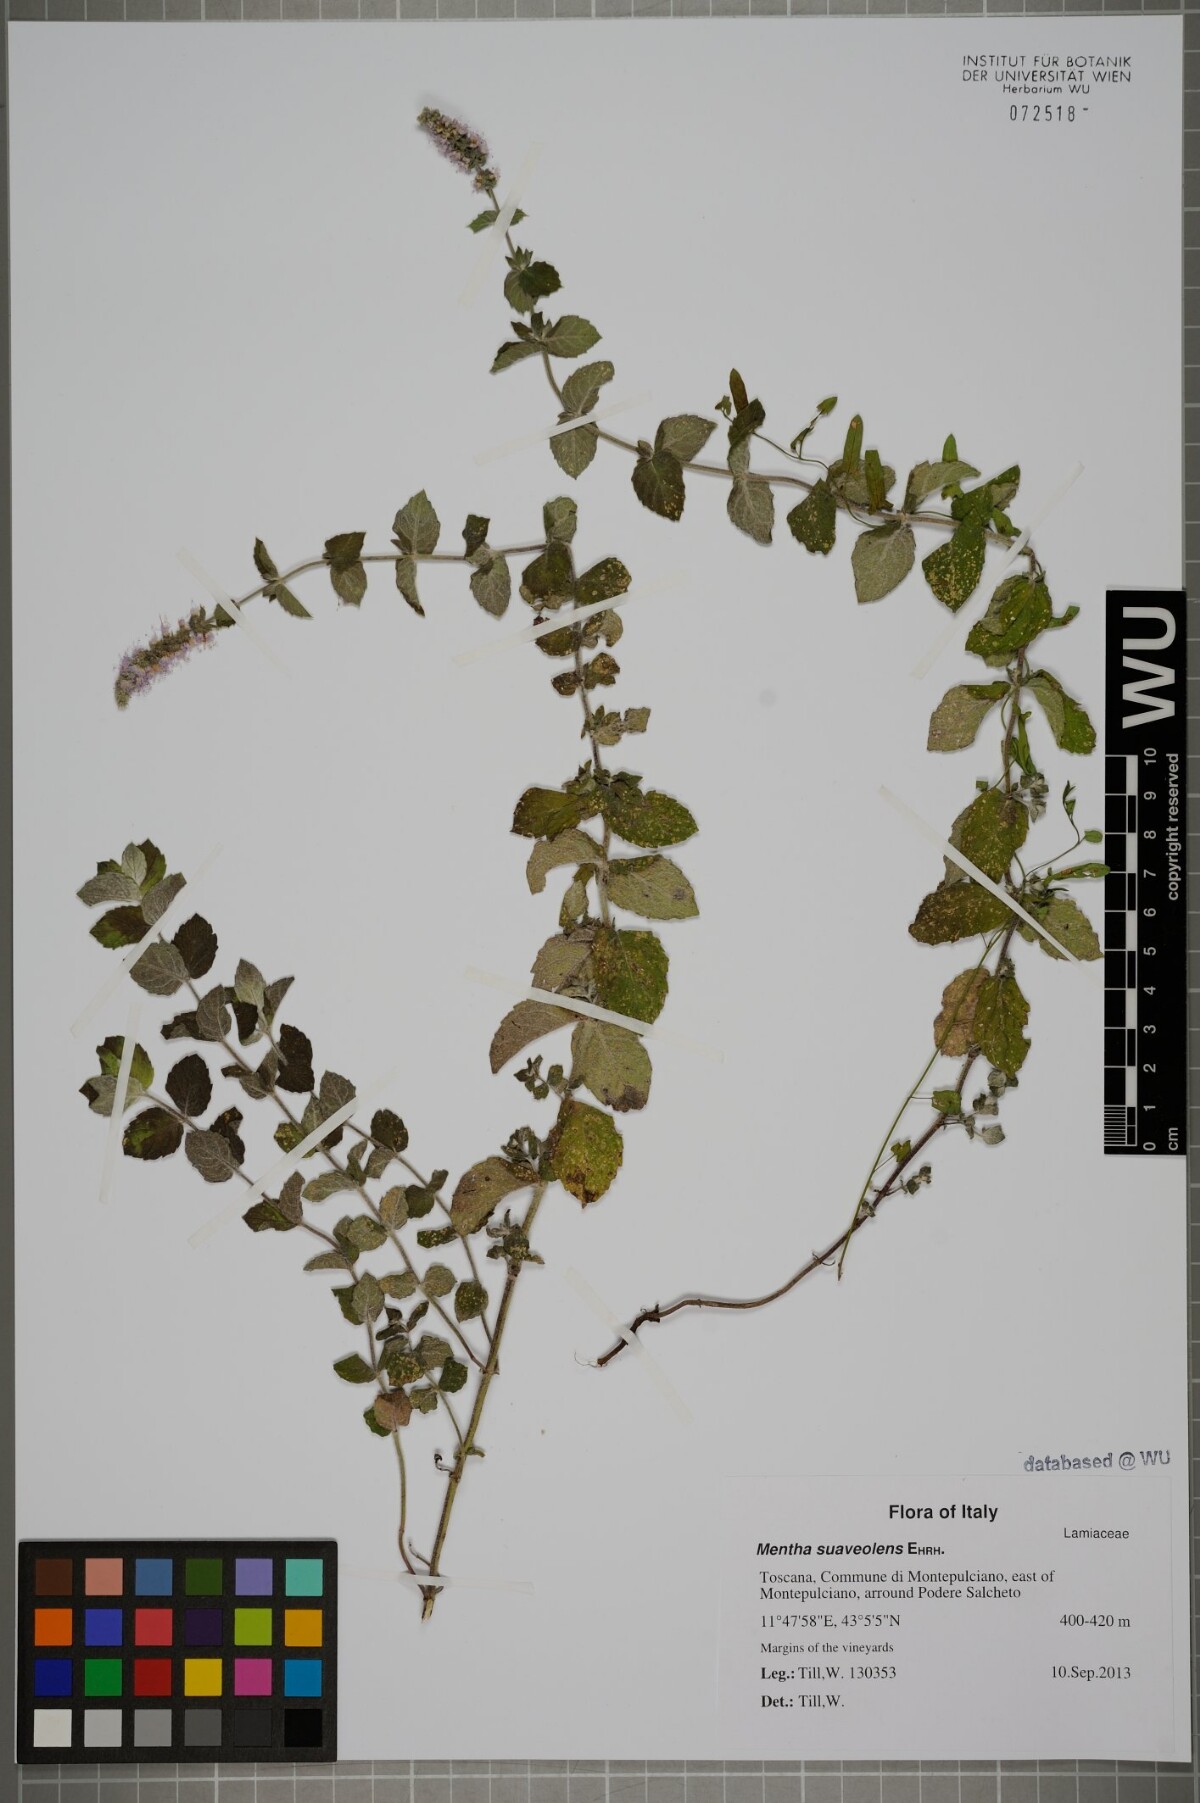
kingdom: Plantae
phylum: Tracheophyta
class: Magnoliopsida
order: Lamiales
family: Lamiaceae
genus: Mentha
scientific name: Mentha suaveolens
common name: Apple mint
